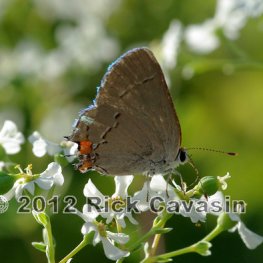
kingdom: Animalia
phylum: Arthropoda
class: Insecta
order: Lepidoptera
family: Lycaenidae
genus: Strymon
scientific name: Strymon melinus
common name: Gray Hairstreak
